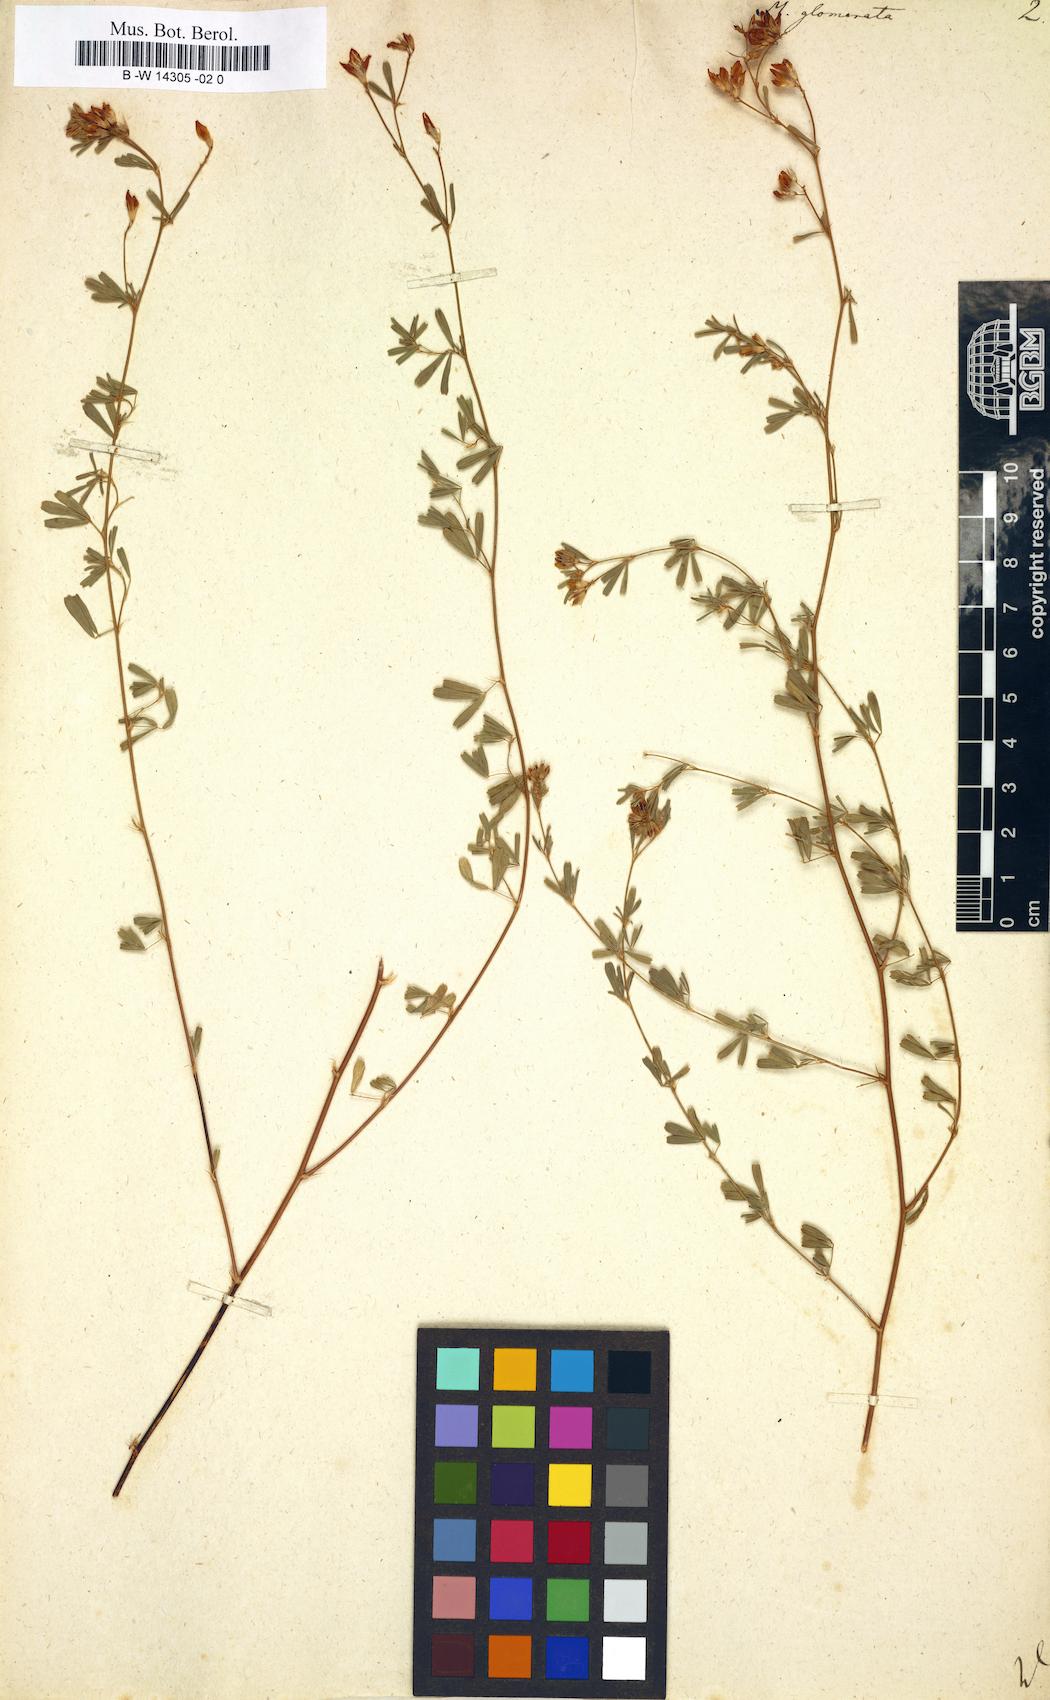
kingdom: Plantae
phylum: Tracheophyta
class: Magnoliopsida
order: Fabales
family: Fabaceae
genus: Medicago
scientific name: Medicago sativa
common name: Alfalfa
